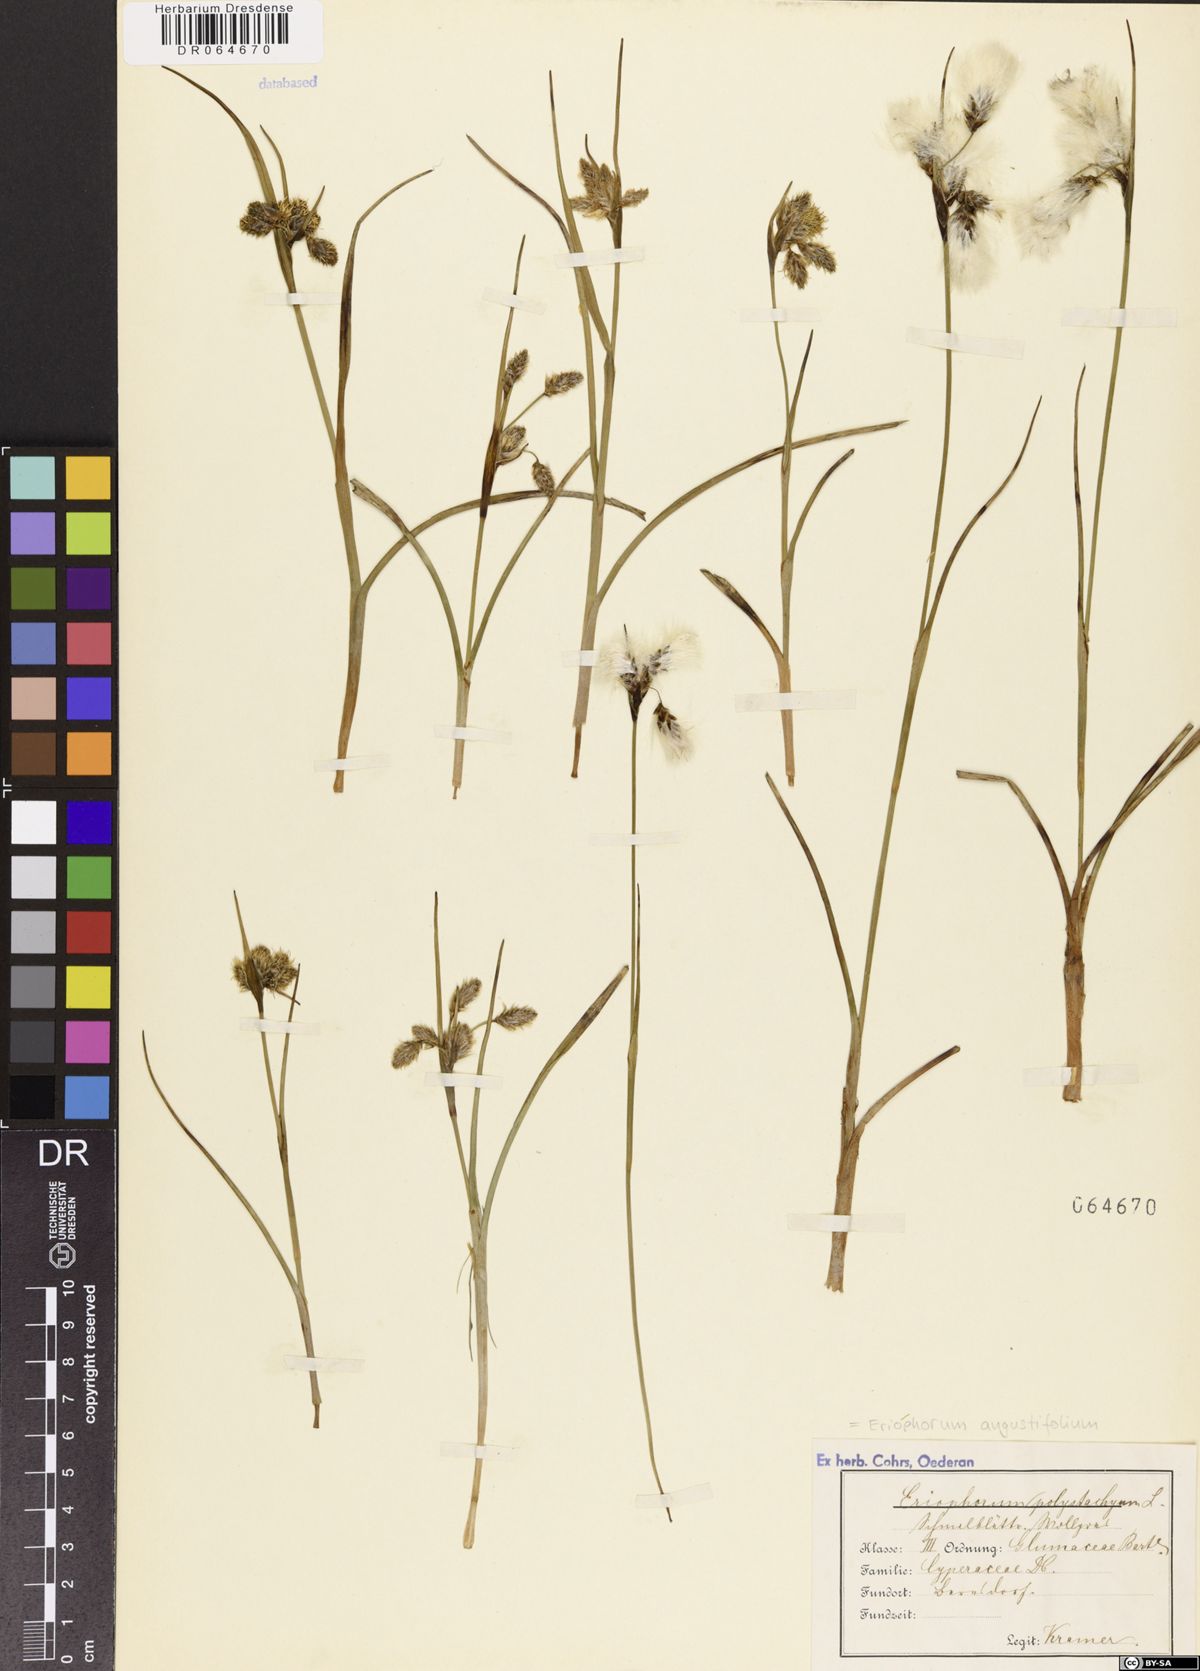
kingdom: Plantae
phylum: Tracheophyta
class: Liliopsida
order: Poales
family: Cyperaceae
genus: Eriophorum
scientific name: Eriophorum angustifolium
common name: Common cottongrass
